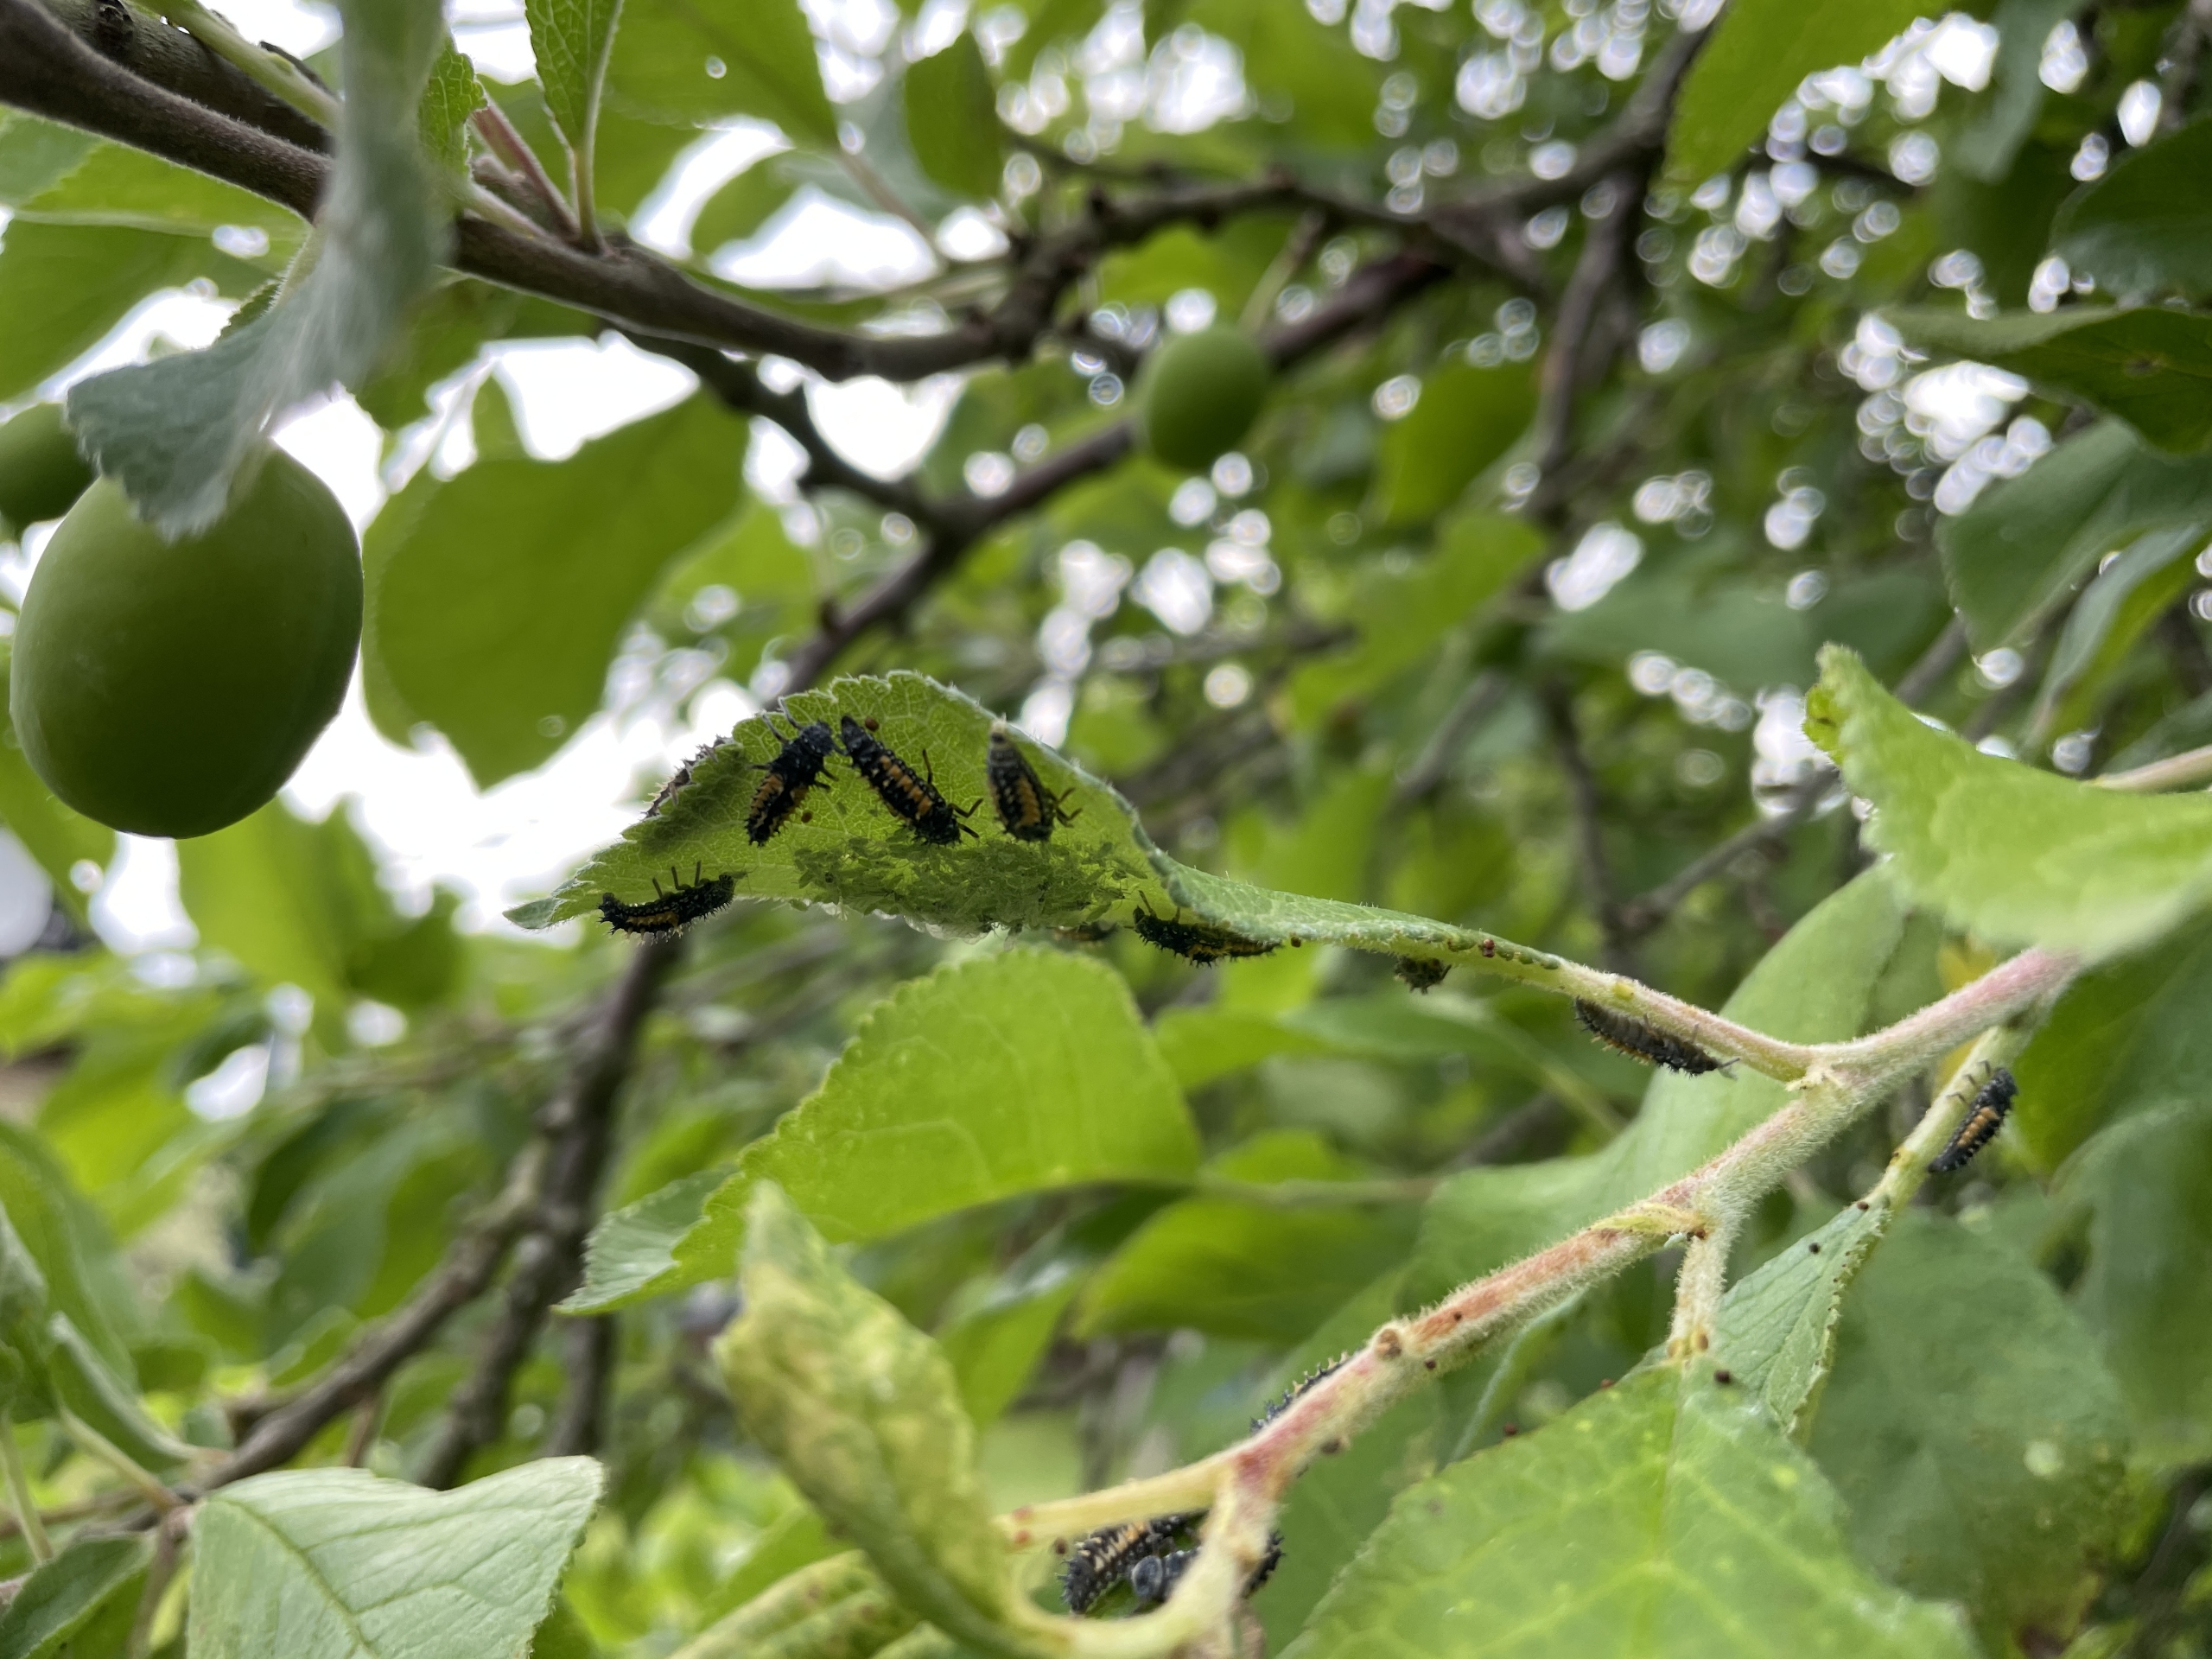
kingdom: Animalia
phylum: Arthropoda
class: Insecta
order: Coleoptera
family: Coccinellidae
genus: Harmonia
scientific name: Harmonia axyridis
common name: Harlekinmariehøne
